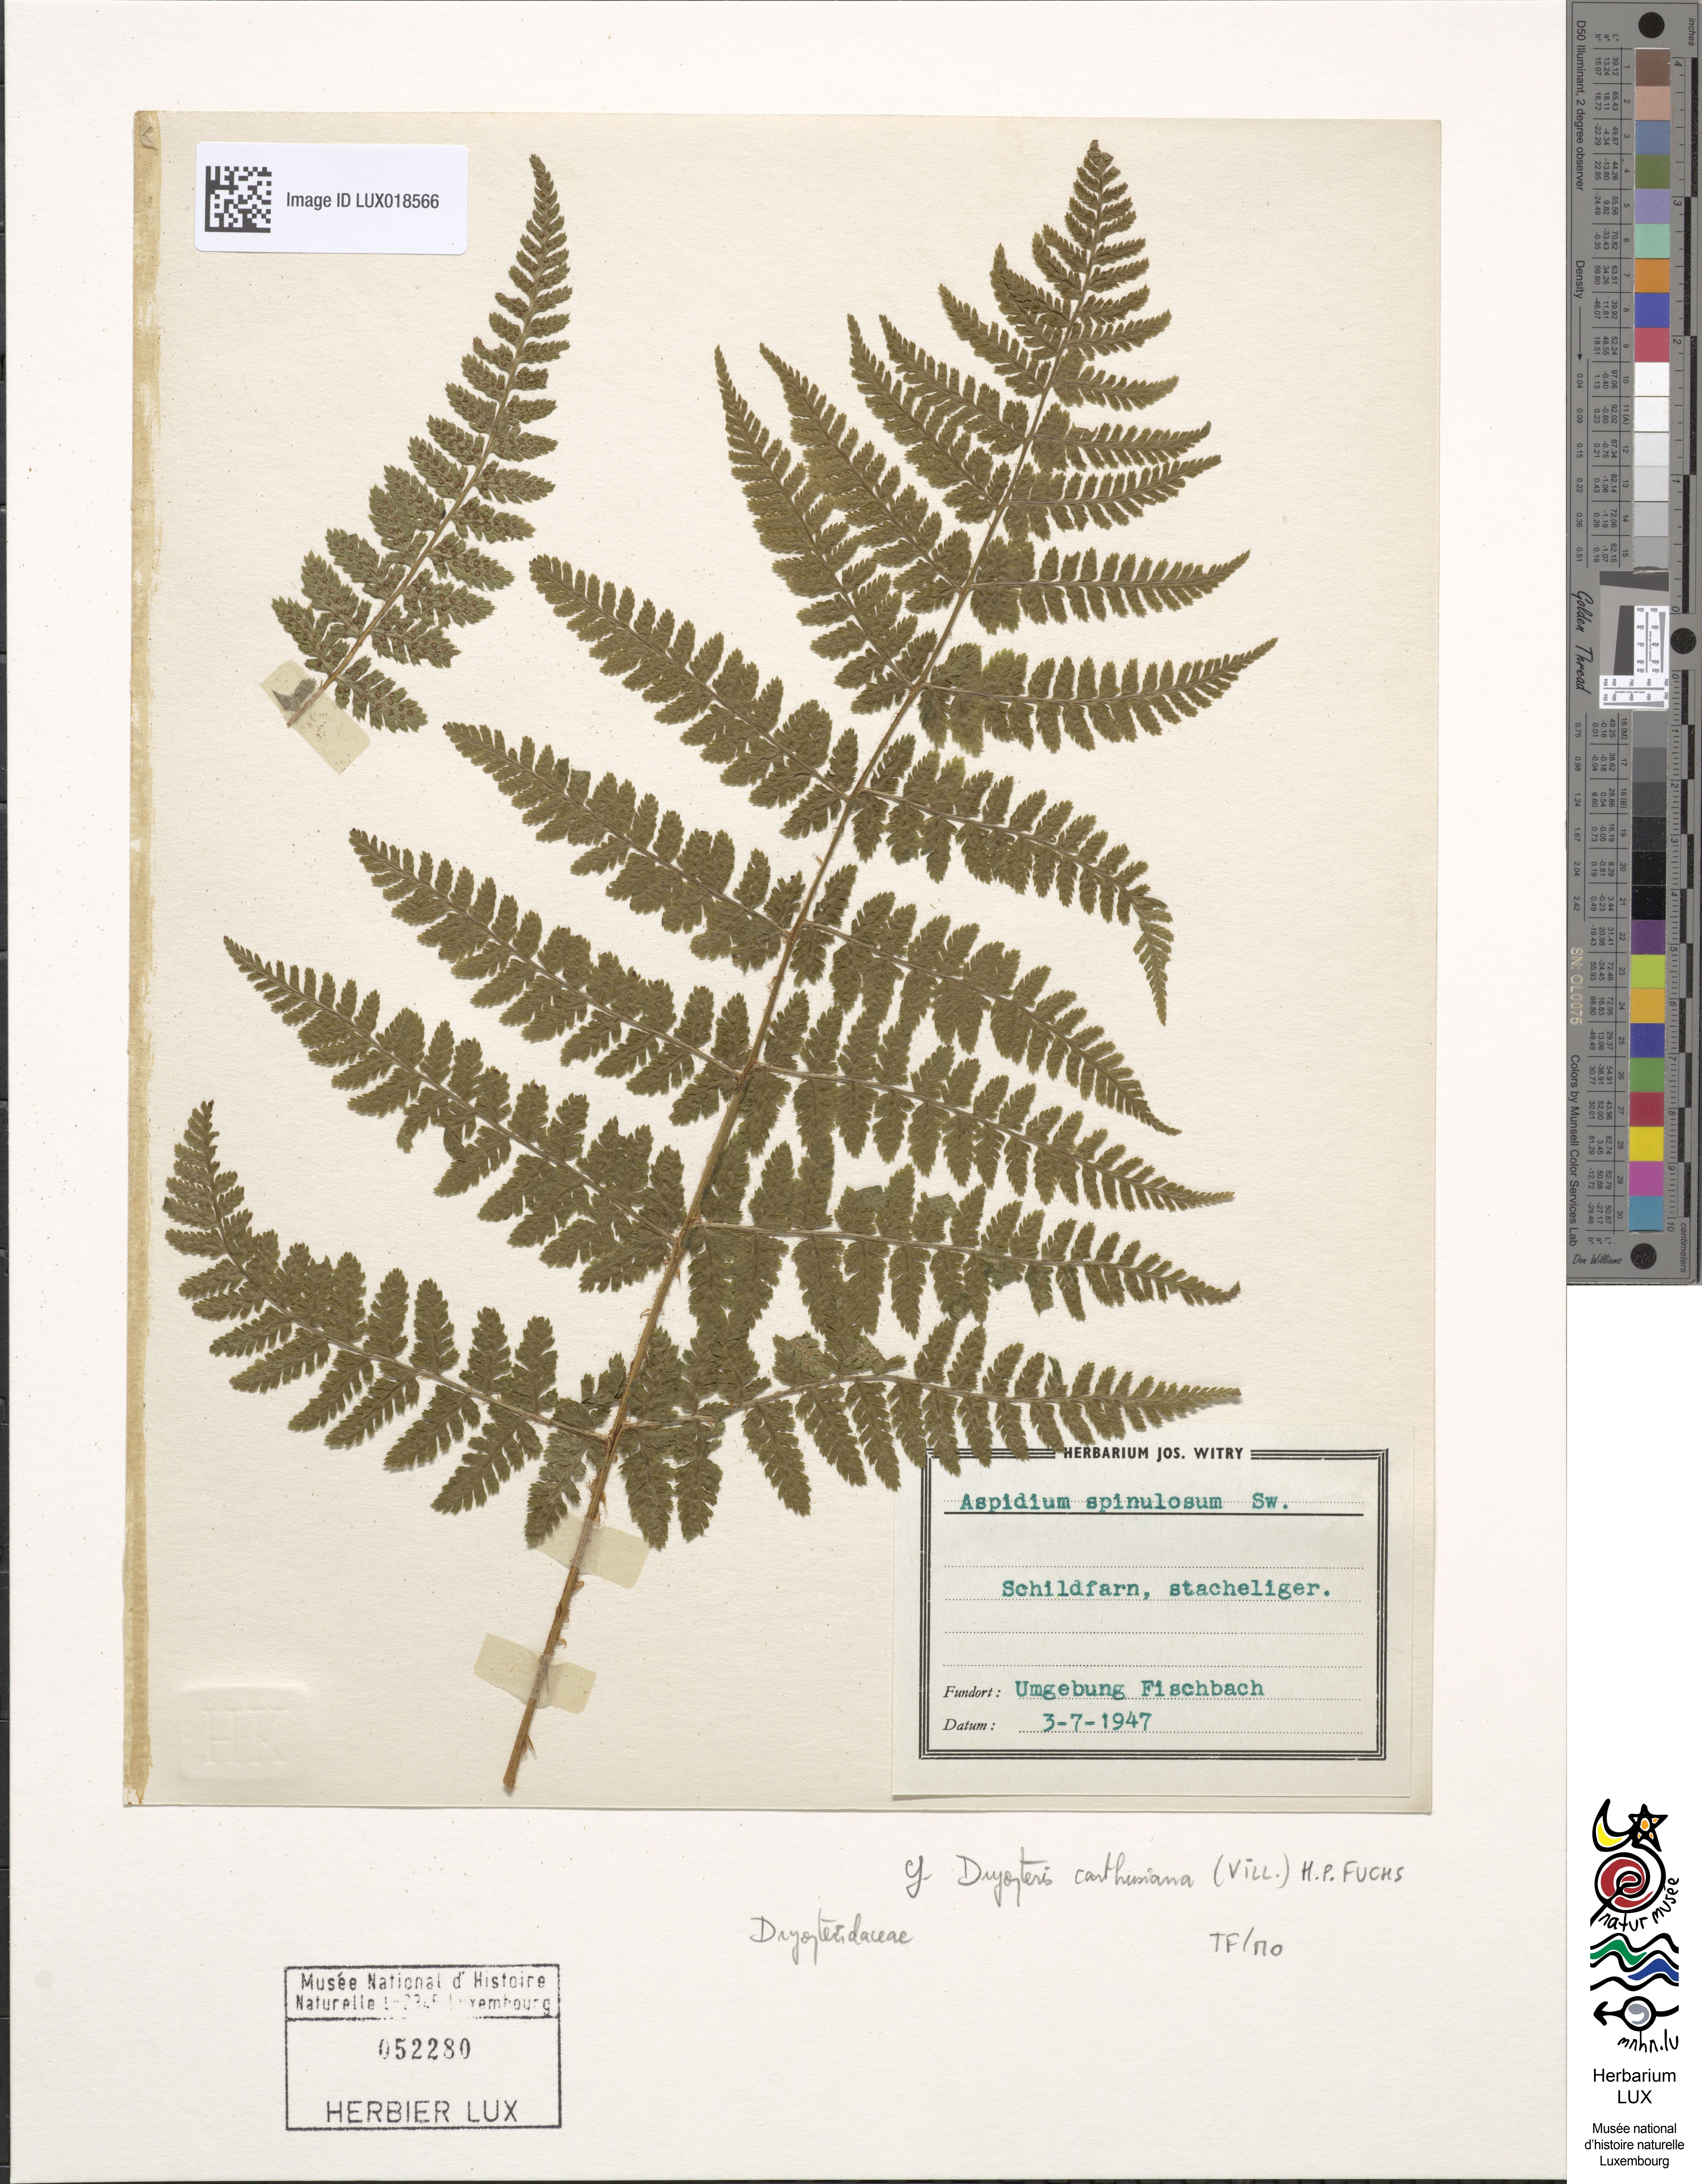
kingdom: Plantae
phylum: Tracheophyta
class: Polypodiopsida
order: Polypodiales
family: Dryopteridaceae
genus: Dryopteris
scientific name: Dryopteris carthusiana
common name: Narrow buckler-fern
